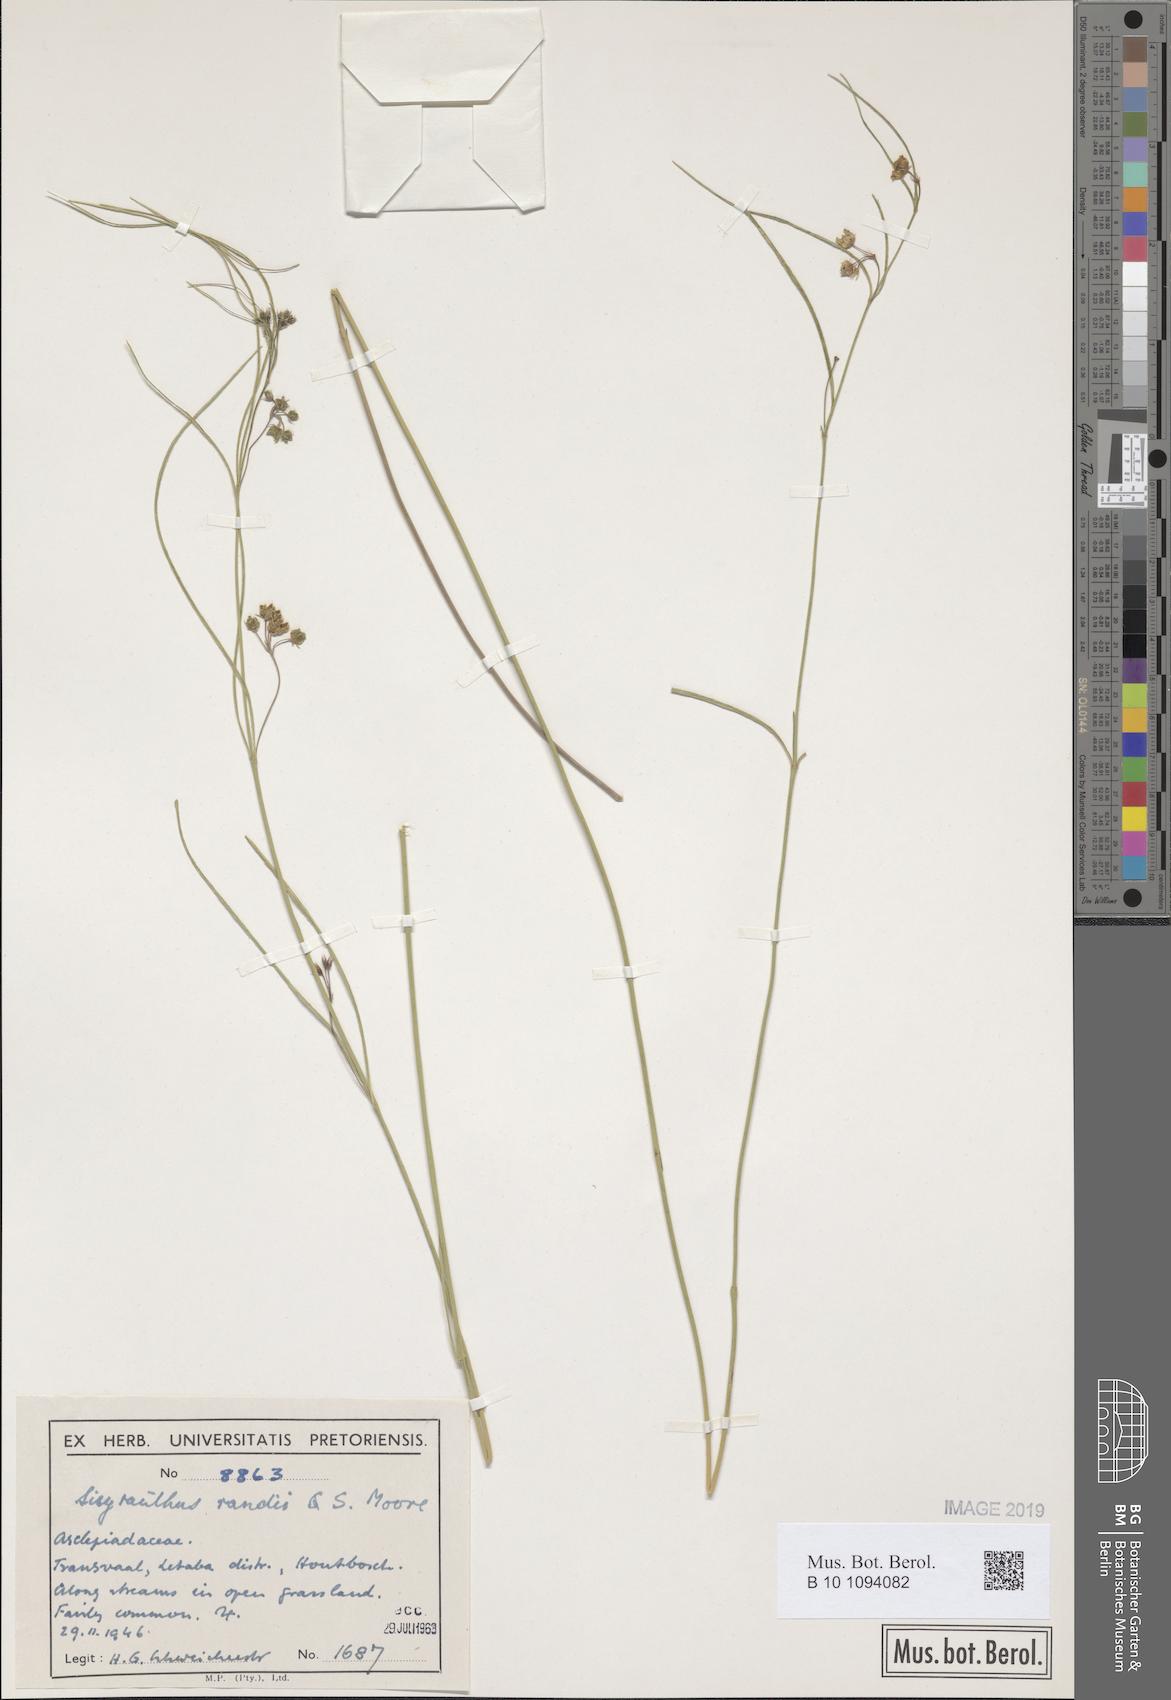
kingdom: Plantae
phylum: Tracheophyta
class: Magnoliopsida
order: Gentianales
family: Apocynaceae
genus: Sisyranthus
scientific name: Sisyranthus randii
